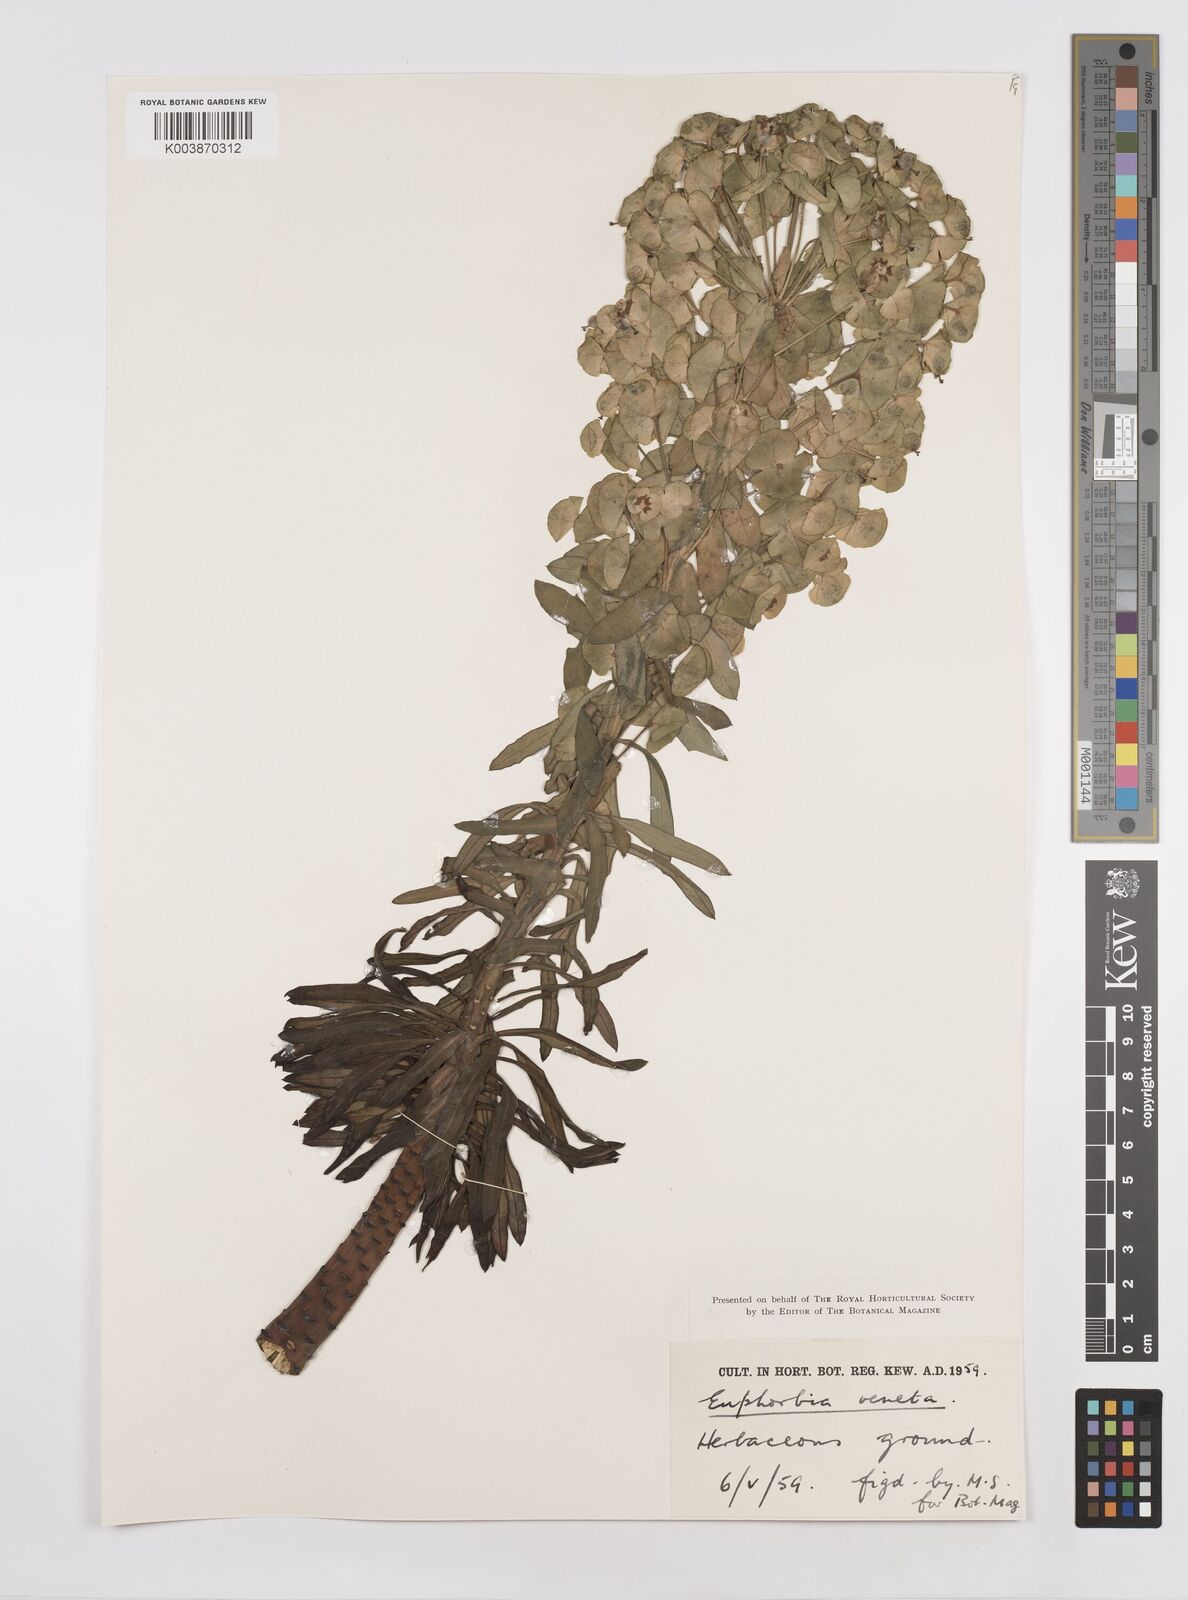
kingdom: Plantae
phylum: Tracheophyta
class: Magnoliopsida
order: Malpighiales
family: Euphorbiaceae
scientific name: Euphorbiaceae
